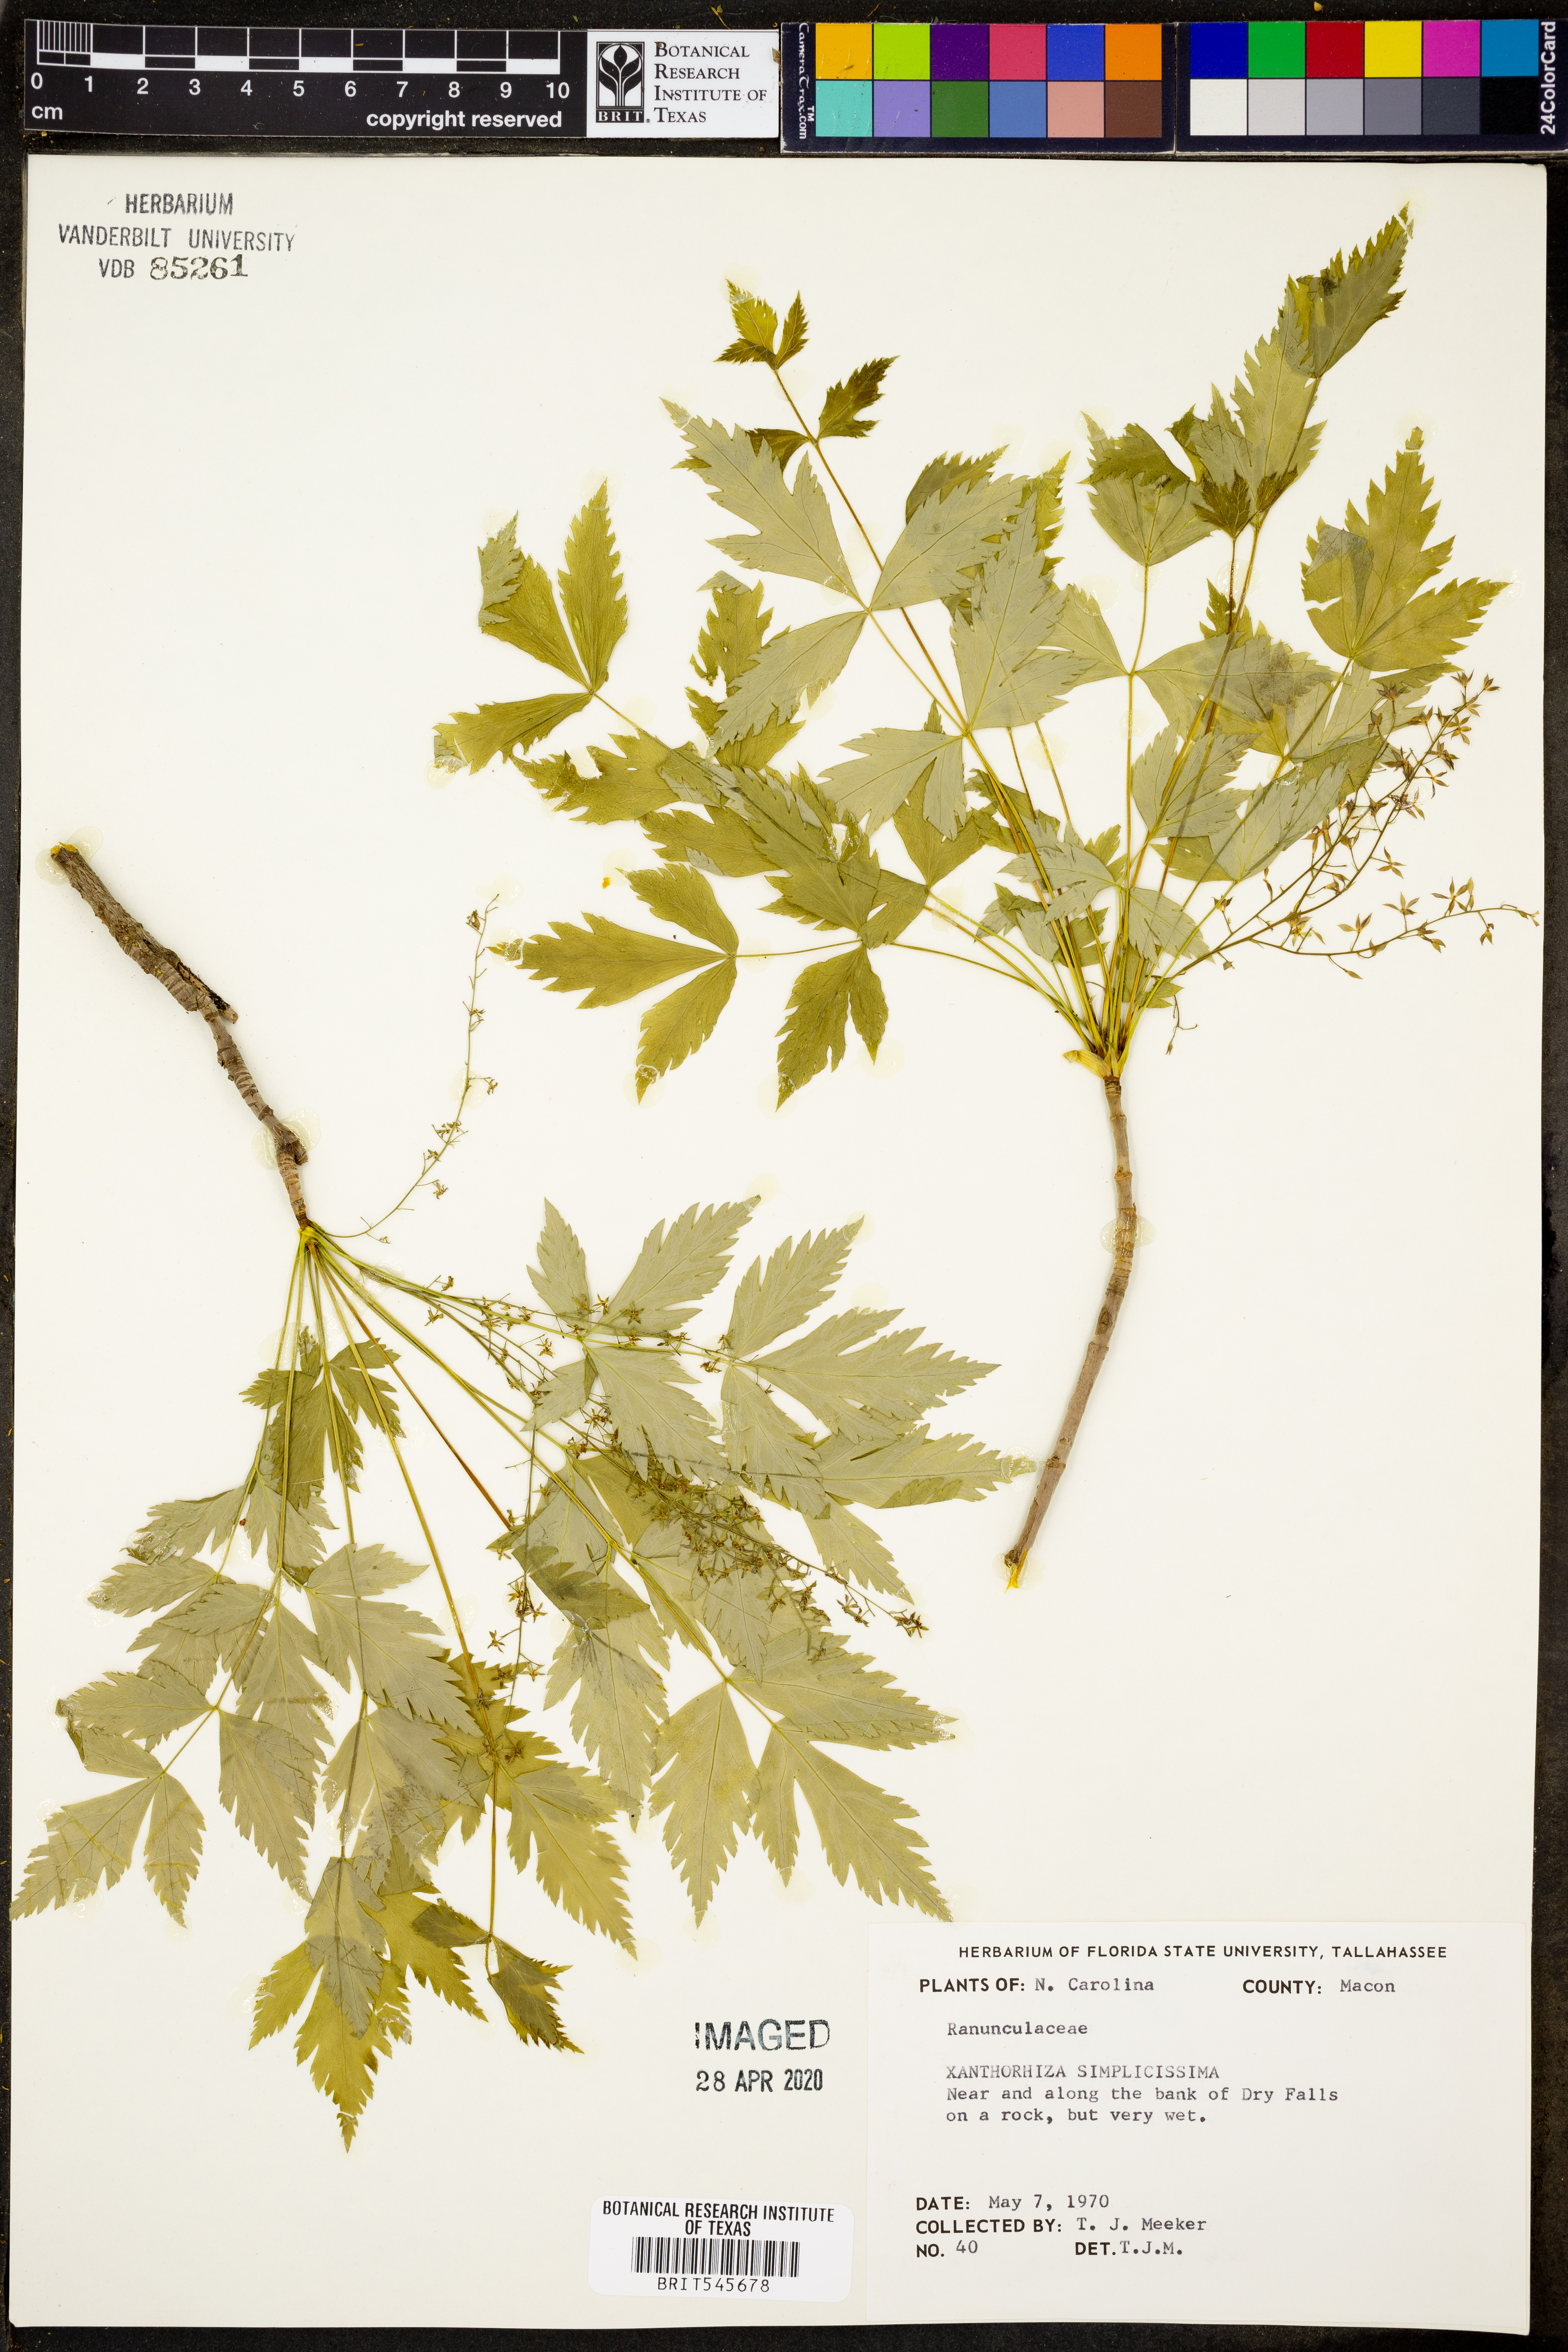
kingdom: Plantae
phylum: Tracheophyta
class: Magnoliopsida
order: Ranunculales
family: Ranunculaceae
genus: Xanthorhiza
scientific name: Xanthorhiza simplicissima
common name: Yellowroot
